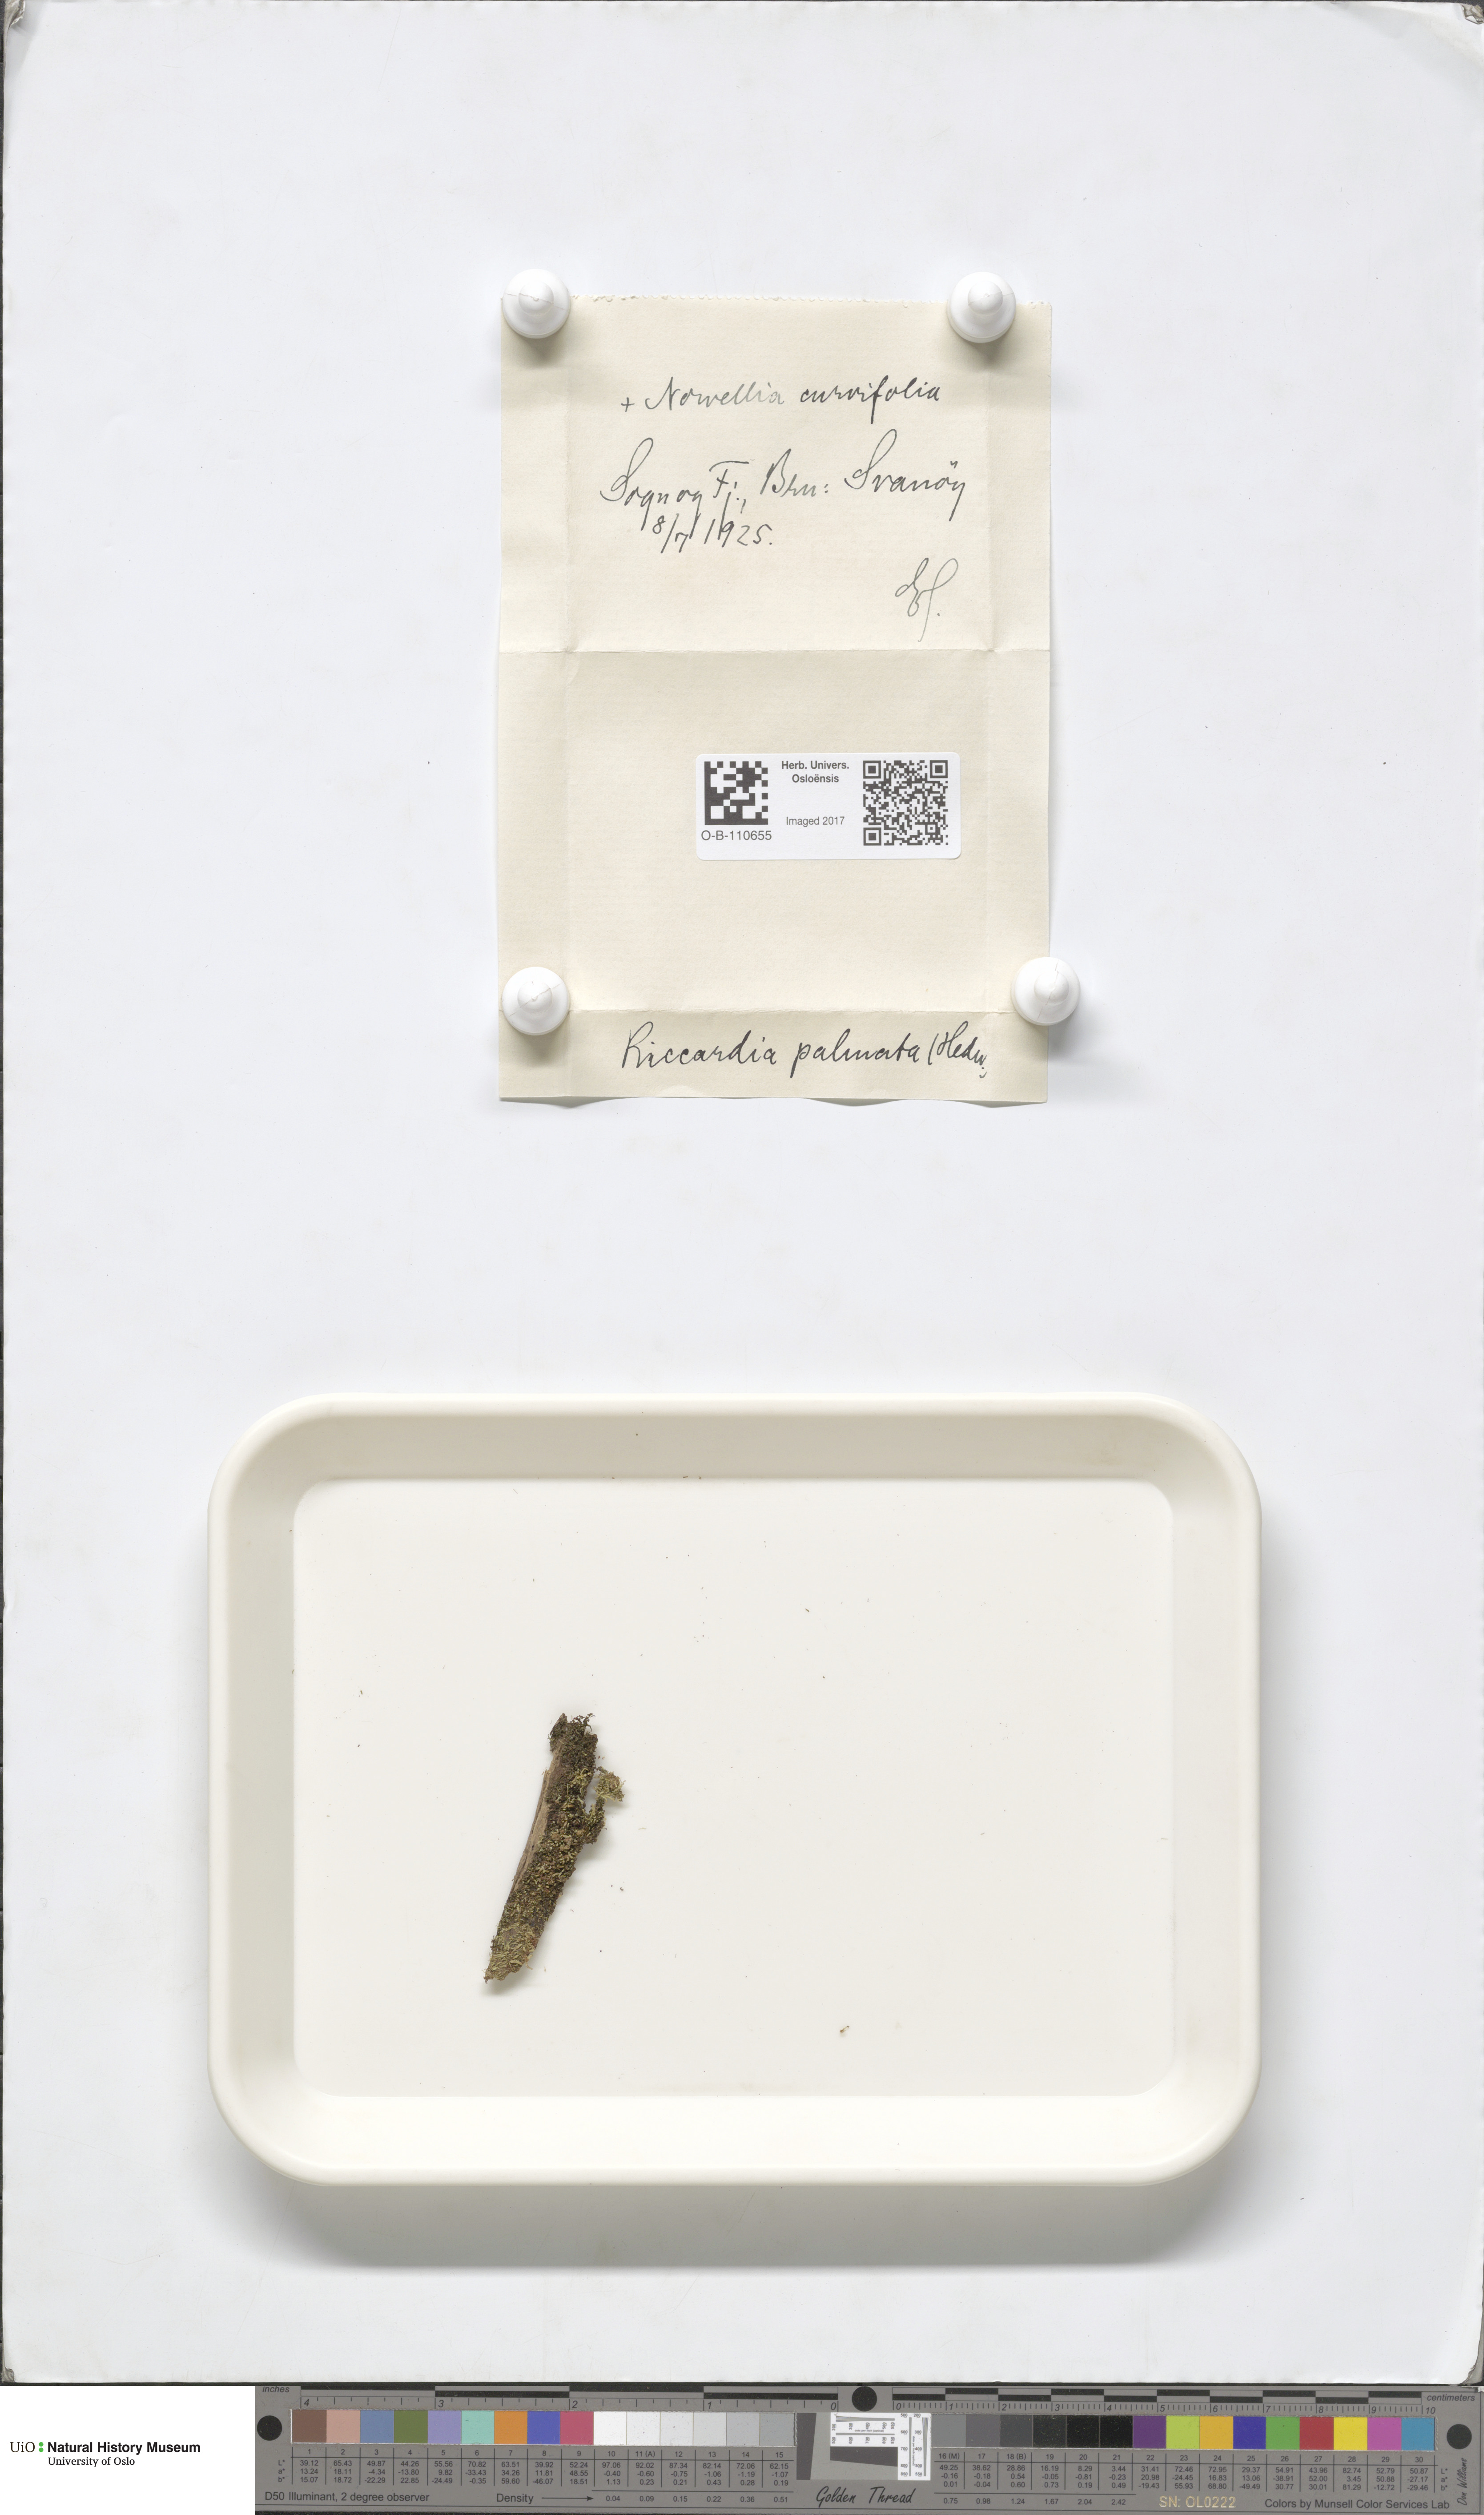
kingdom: Plantae
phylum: Marchantiophyta
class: Jungermanniopsida
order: Metzgeriales
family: Aneuraceae
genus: Riccardia
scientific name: Riccardia palmata
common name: Palmate germanderwort
